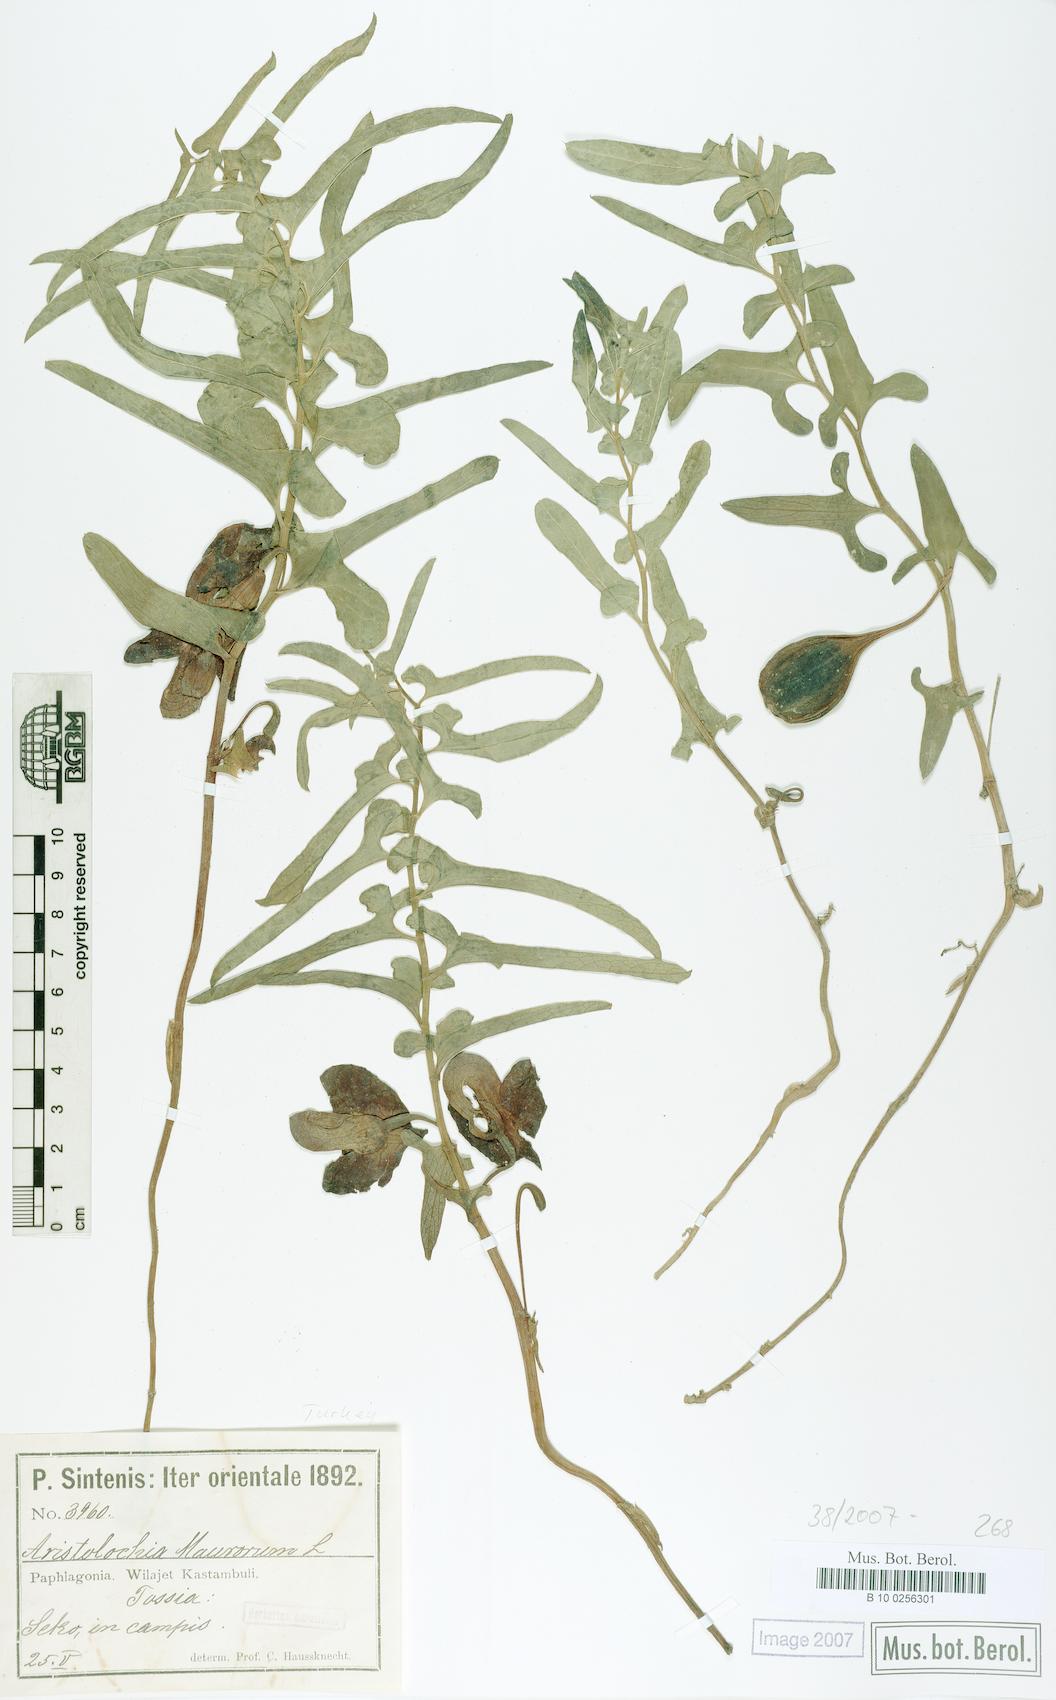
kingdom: Plantae
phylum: Tracheophyta
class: Magnoliopsida
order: Piperales
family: Aristolochiaceae
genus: Aristolochia
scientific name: Aristolochia maurorum
